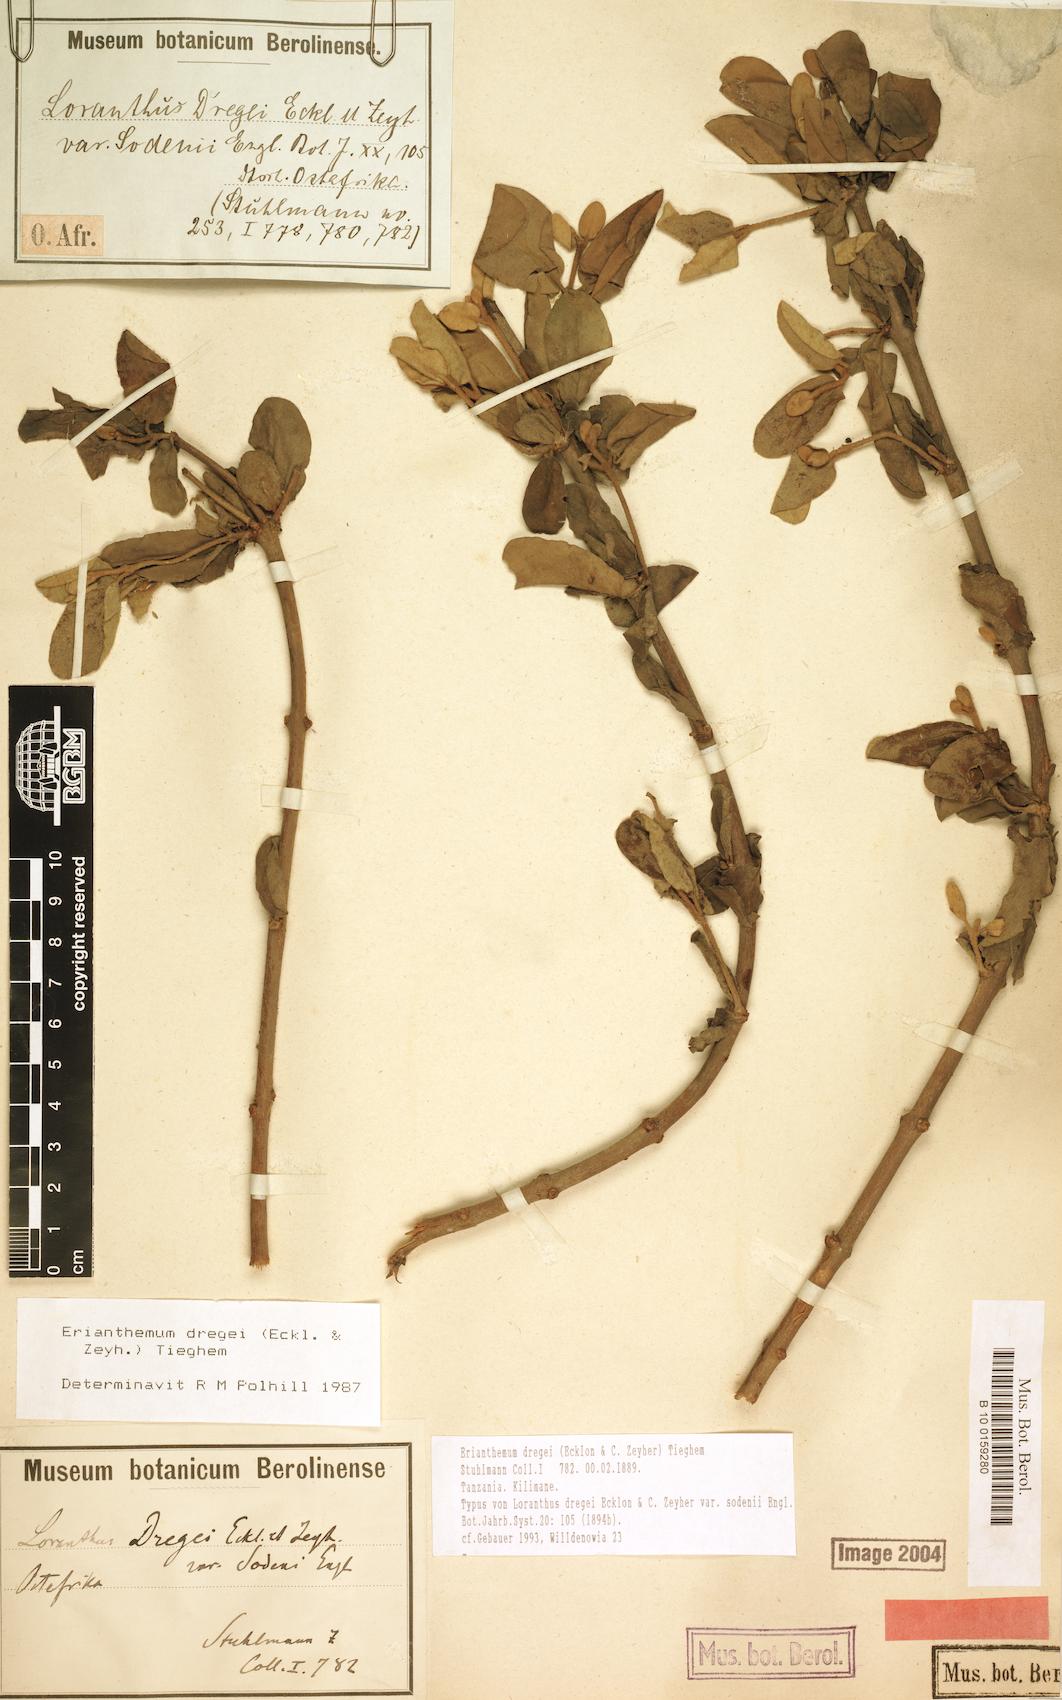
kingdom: Plantae
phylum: Tracheophyta
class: Magnoliopsida
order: Santalales
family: Loranthaceae
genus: Erianthemum
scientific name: Erianthemum dregei
